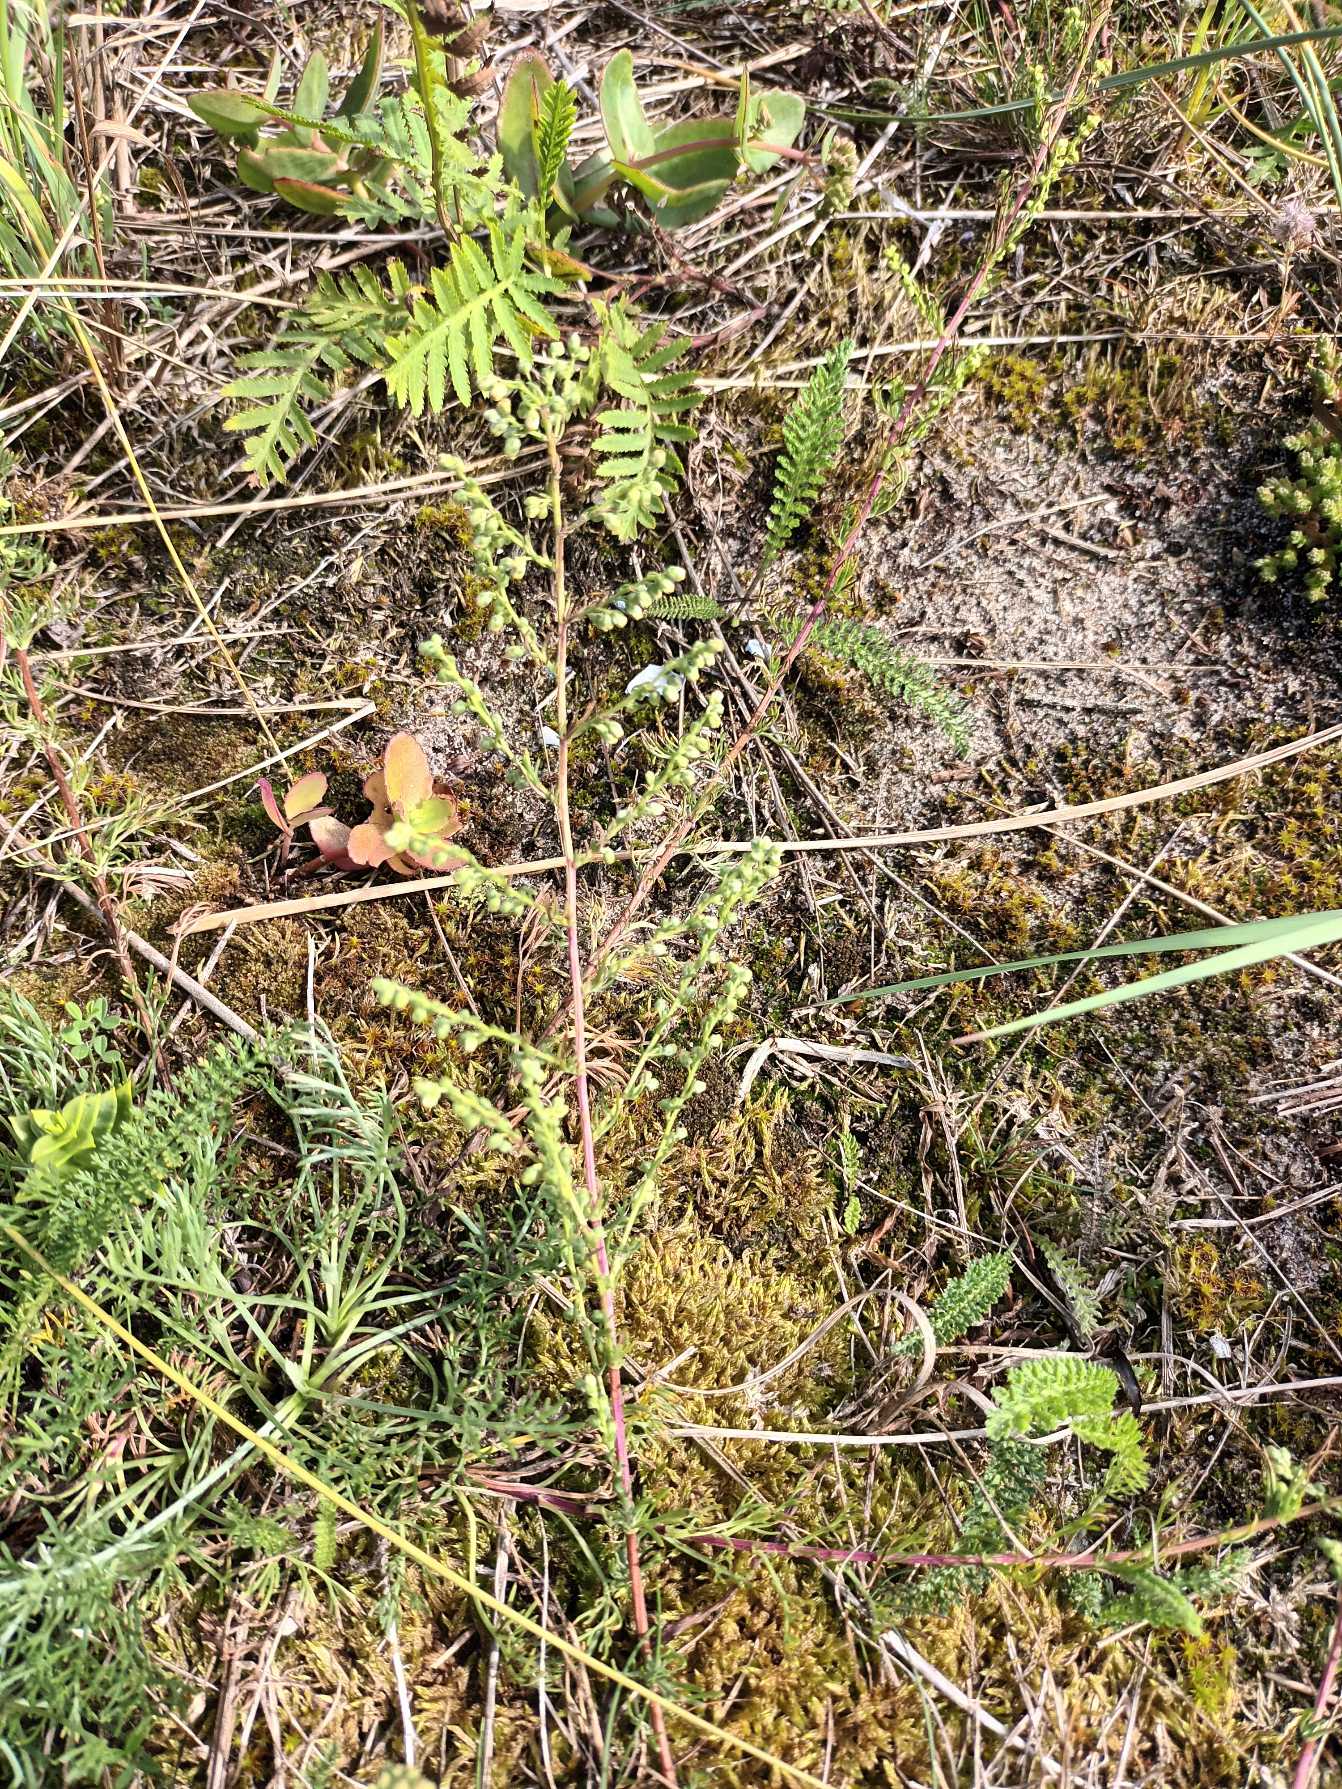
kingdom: Plantae
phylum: Tracheophyta
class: Magnoliopsida
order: Asterales
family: Asteraceae
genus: Artemisia
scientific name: Artemisia campestris
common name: Mark-bynke
